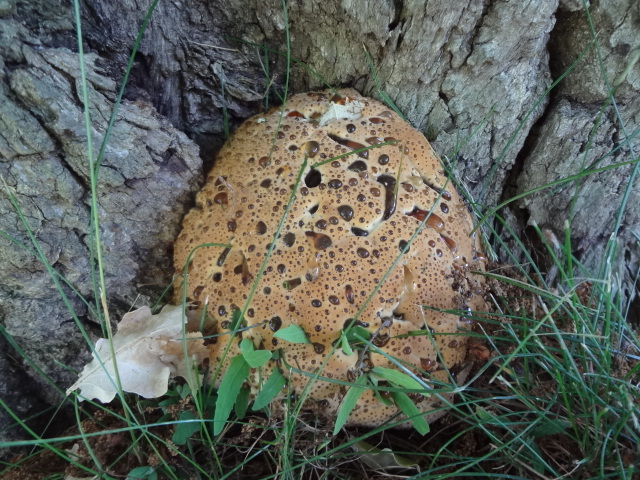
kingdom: Fungi
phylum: Basidiomycota
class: Agaricomycetes
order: Hymenochaetales
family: Hymenochaetaceae
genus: Pseudoinonotus
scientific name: Pseudoinonotus dryadeus
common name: ege-spejlporesvamp
